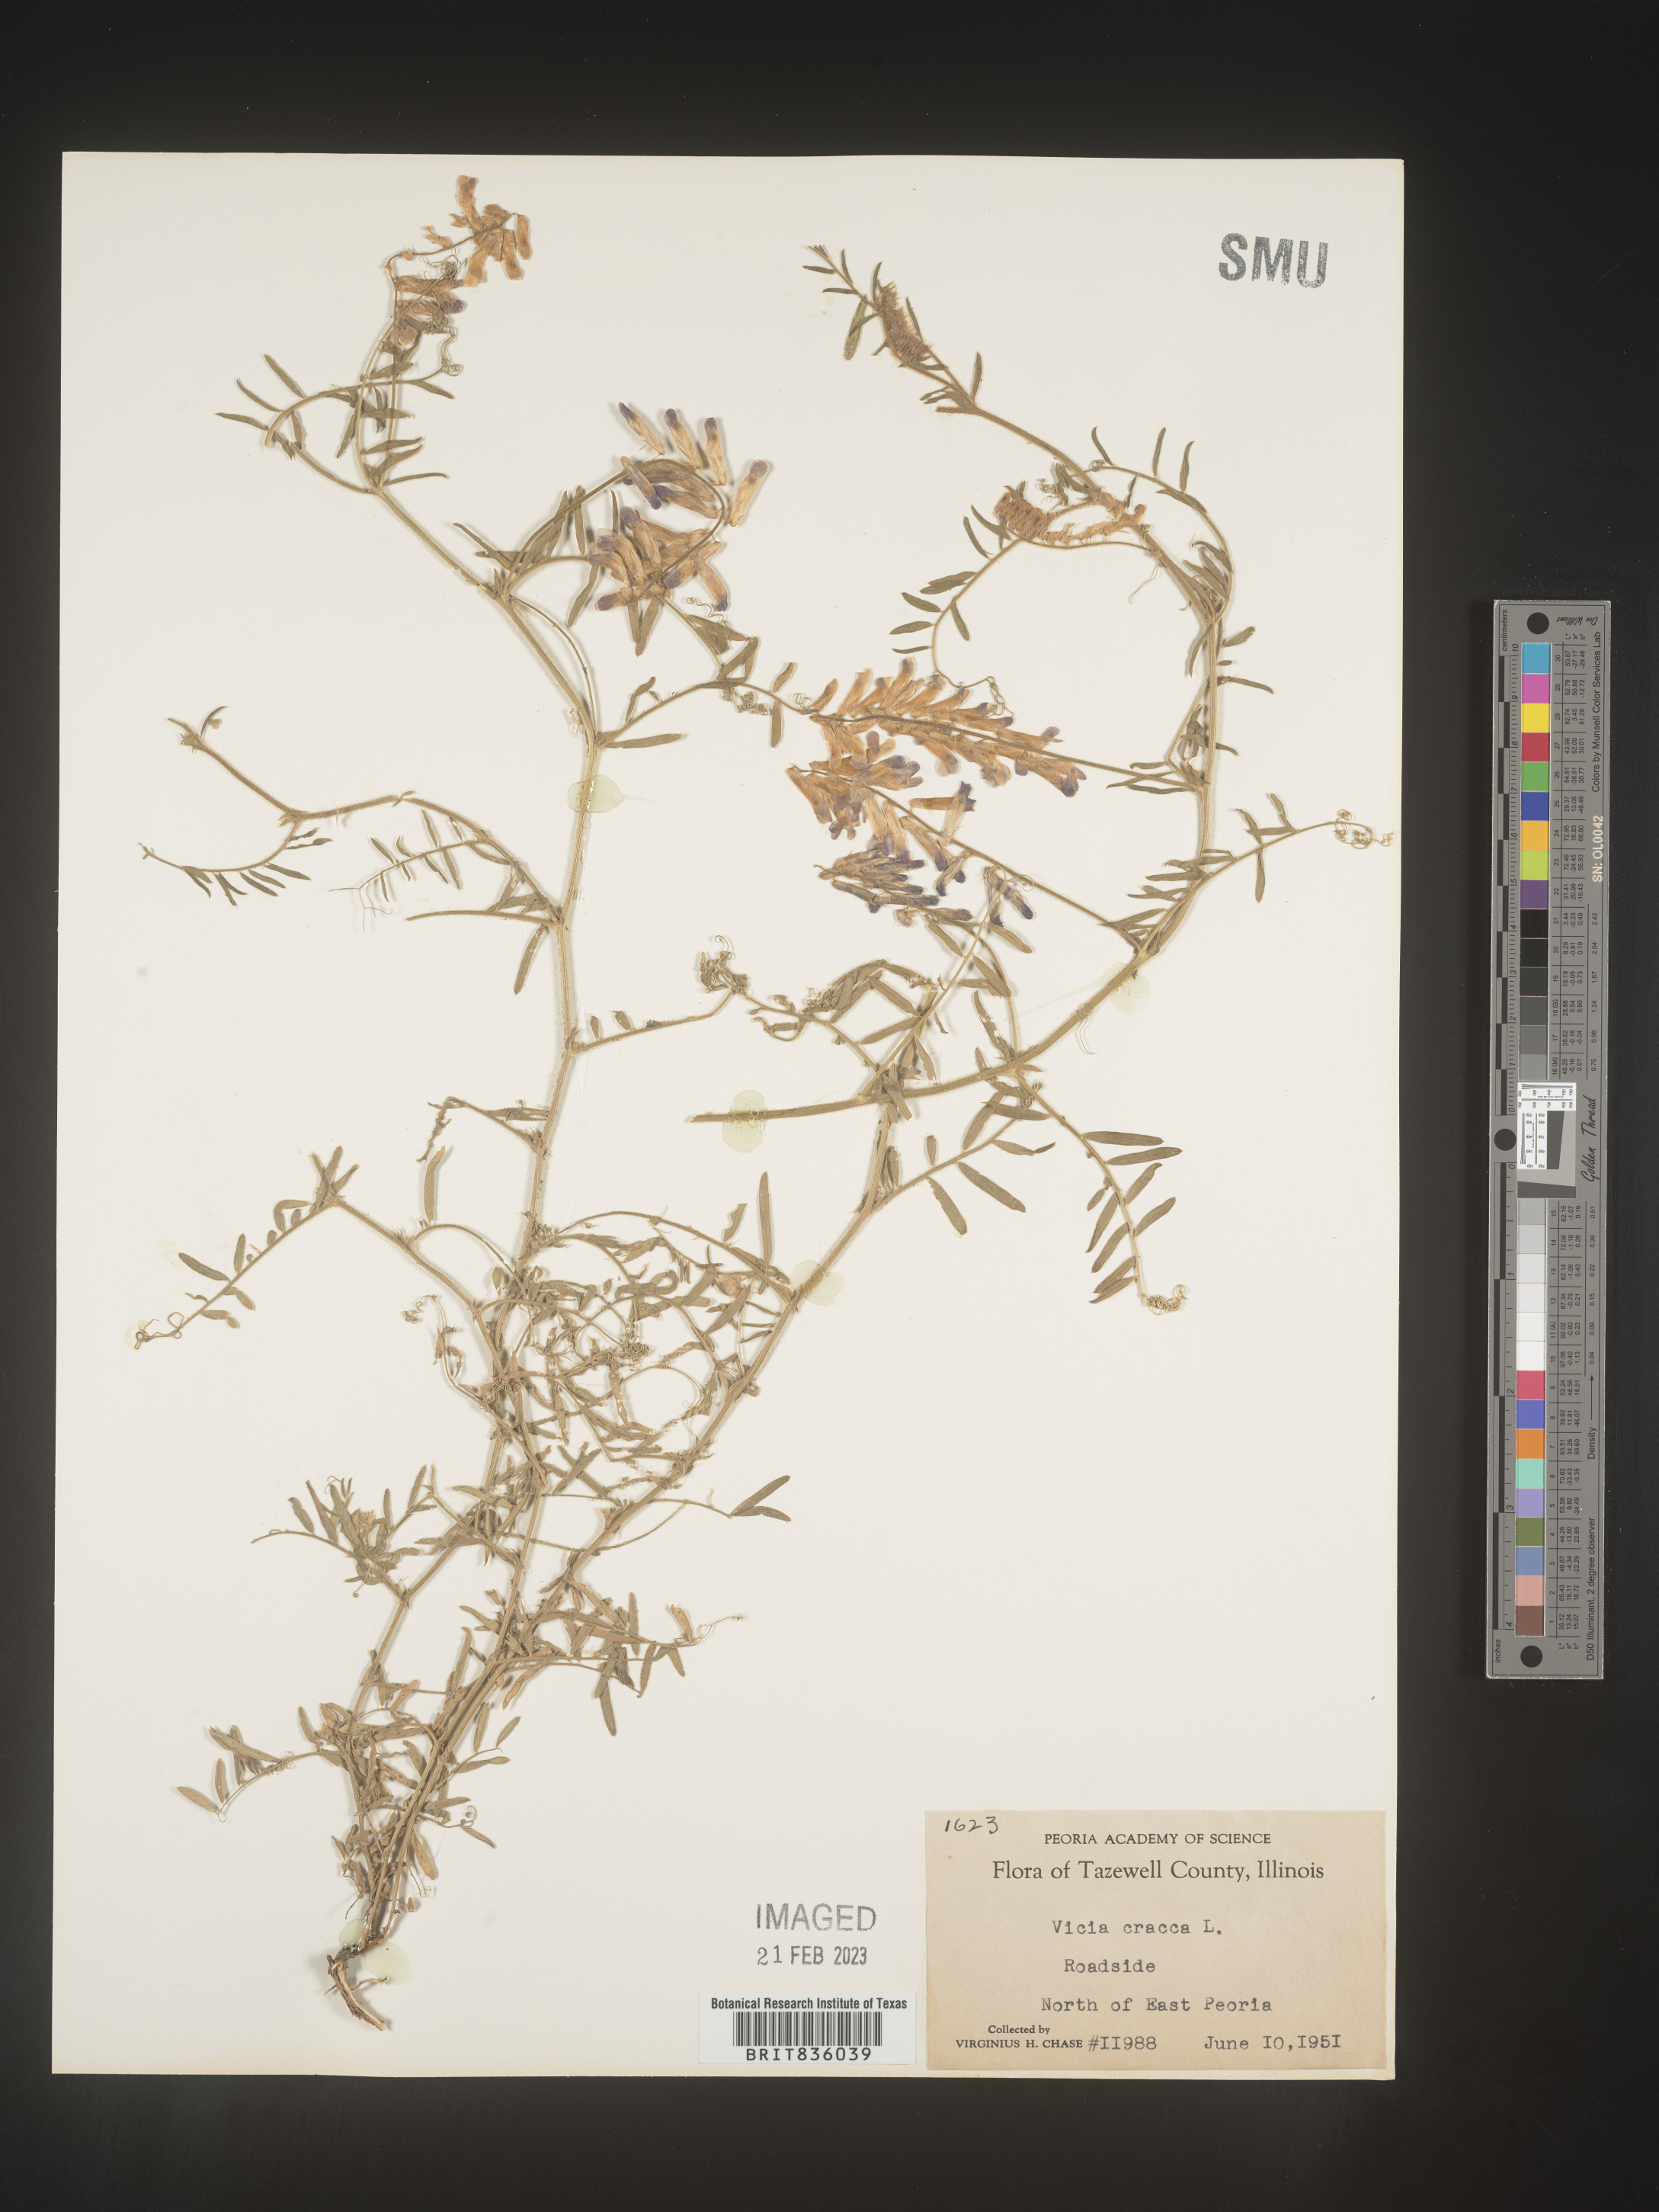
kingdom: Plantae
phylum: Tracheophyta
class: Magnoliopsida
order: Fabales
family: Fabaceae
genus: Vicia
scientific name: Vicia tetrasperma
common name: Smooth tare
